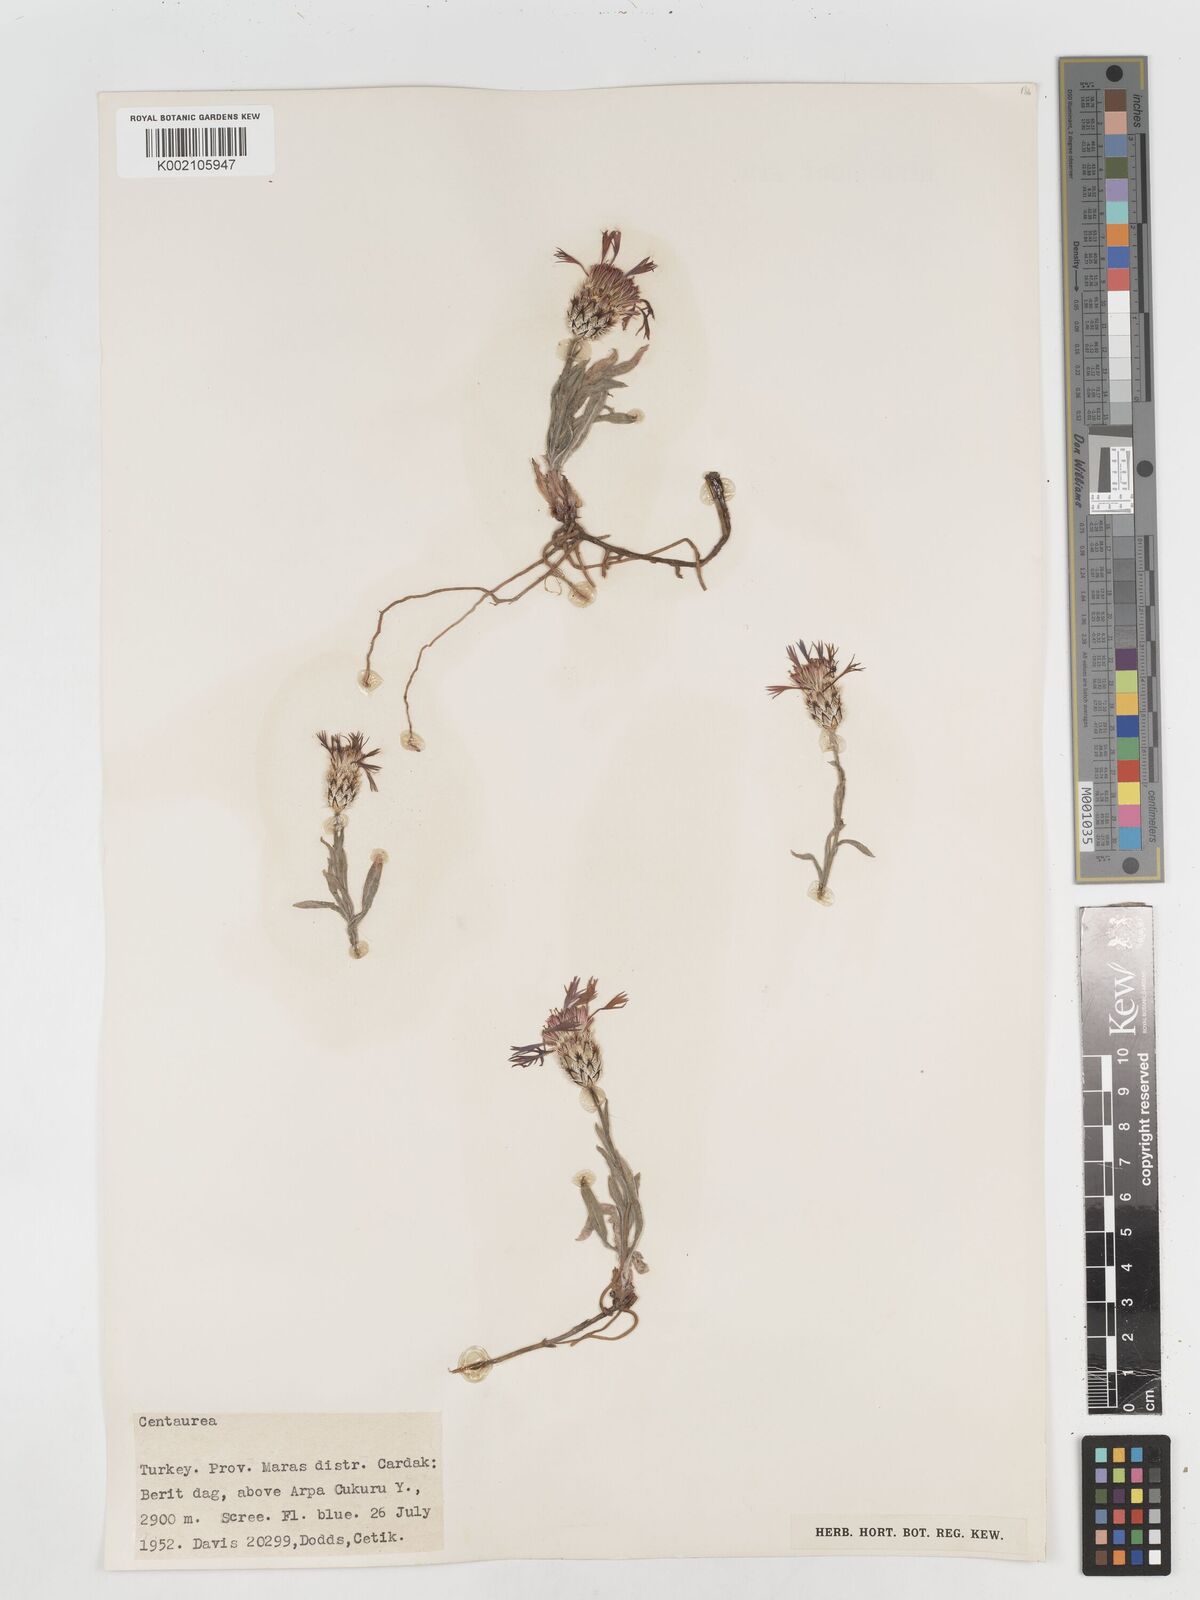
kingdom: Plantae
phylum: Tracheophyta
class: Magnoliopsida
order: Asterales
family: Asteraceae
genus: Centaurea
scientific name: Centaurea
